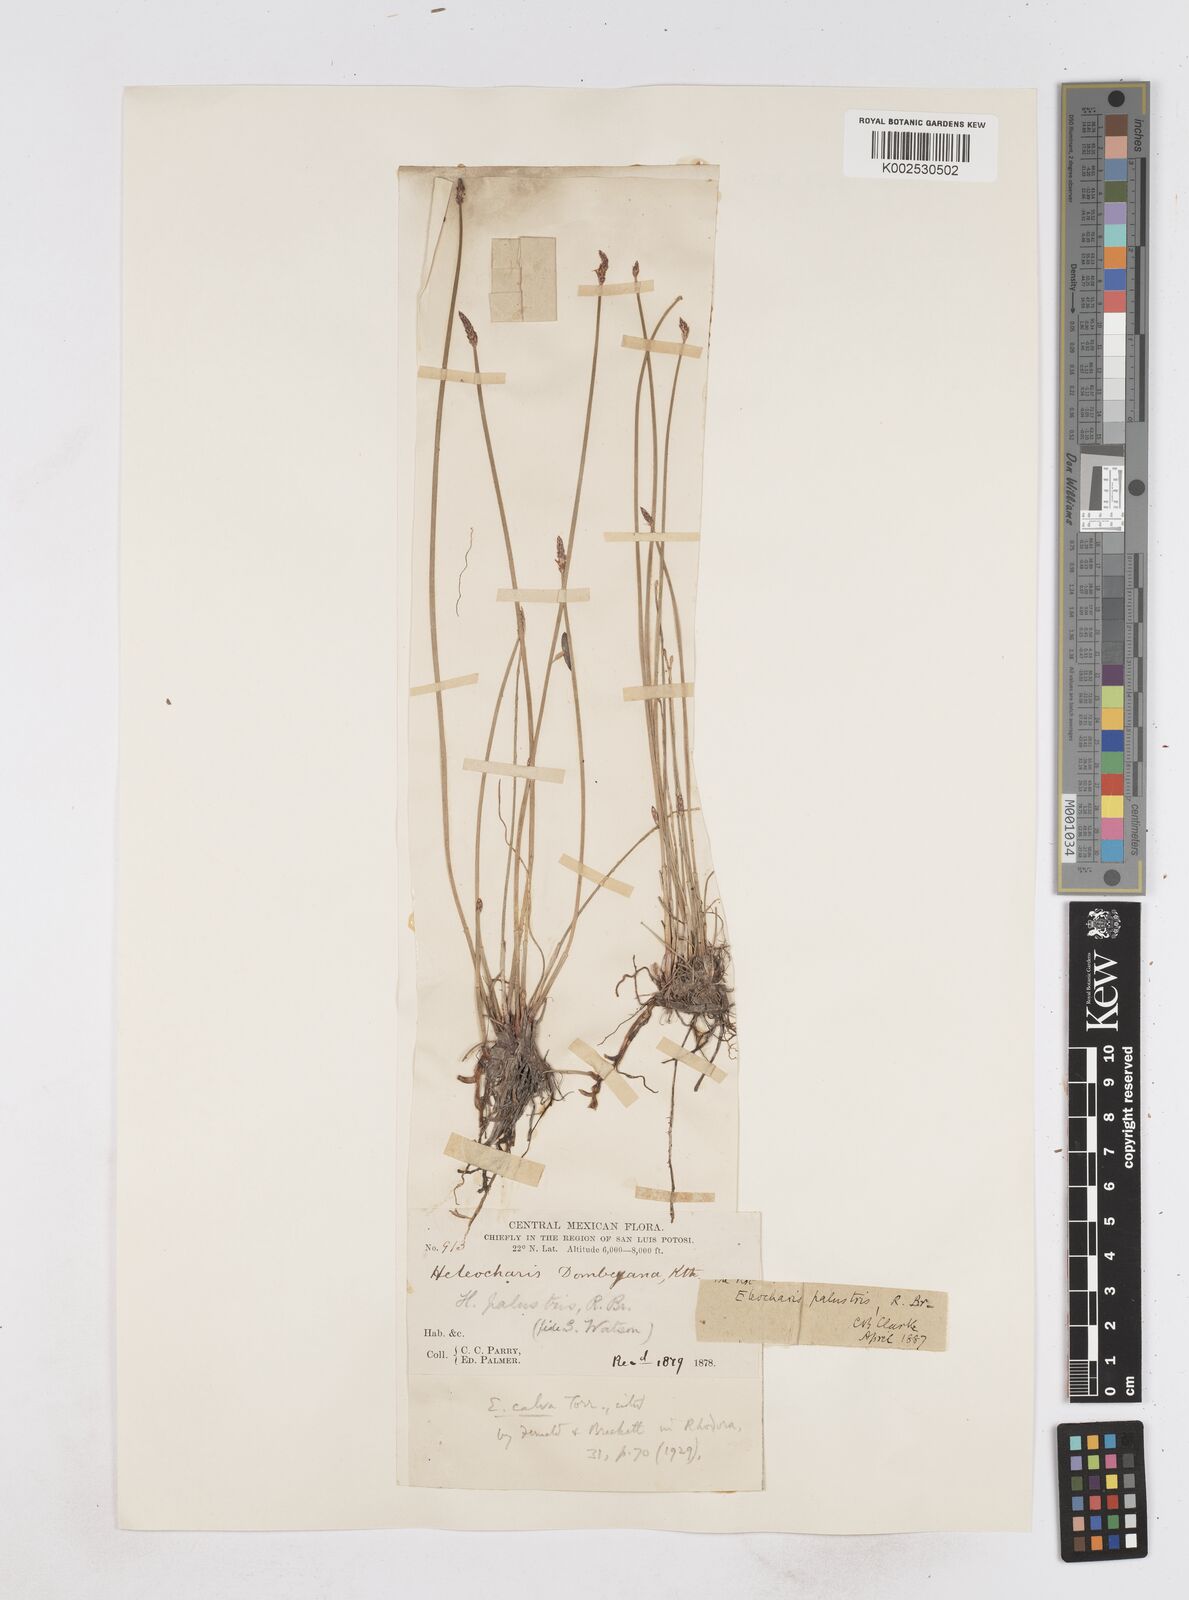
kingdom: Plantae
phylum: Tracheophyta
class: Liliopsida
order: Poales
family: Cyperaceae
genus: Eleocharis
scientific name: Eleocharis palustris
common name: Common spike-rush
